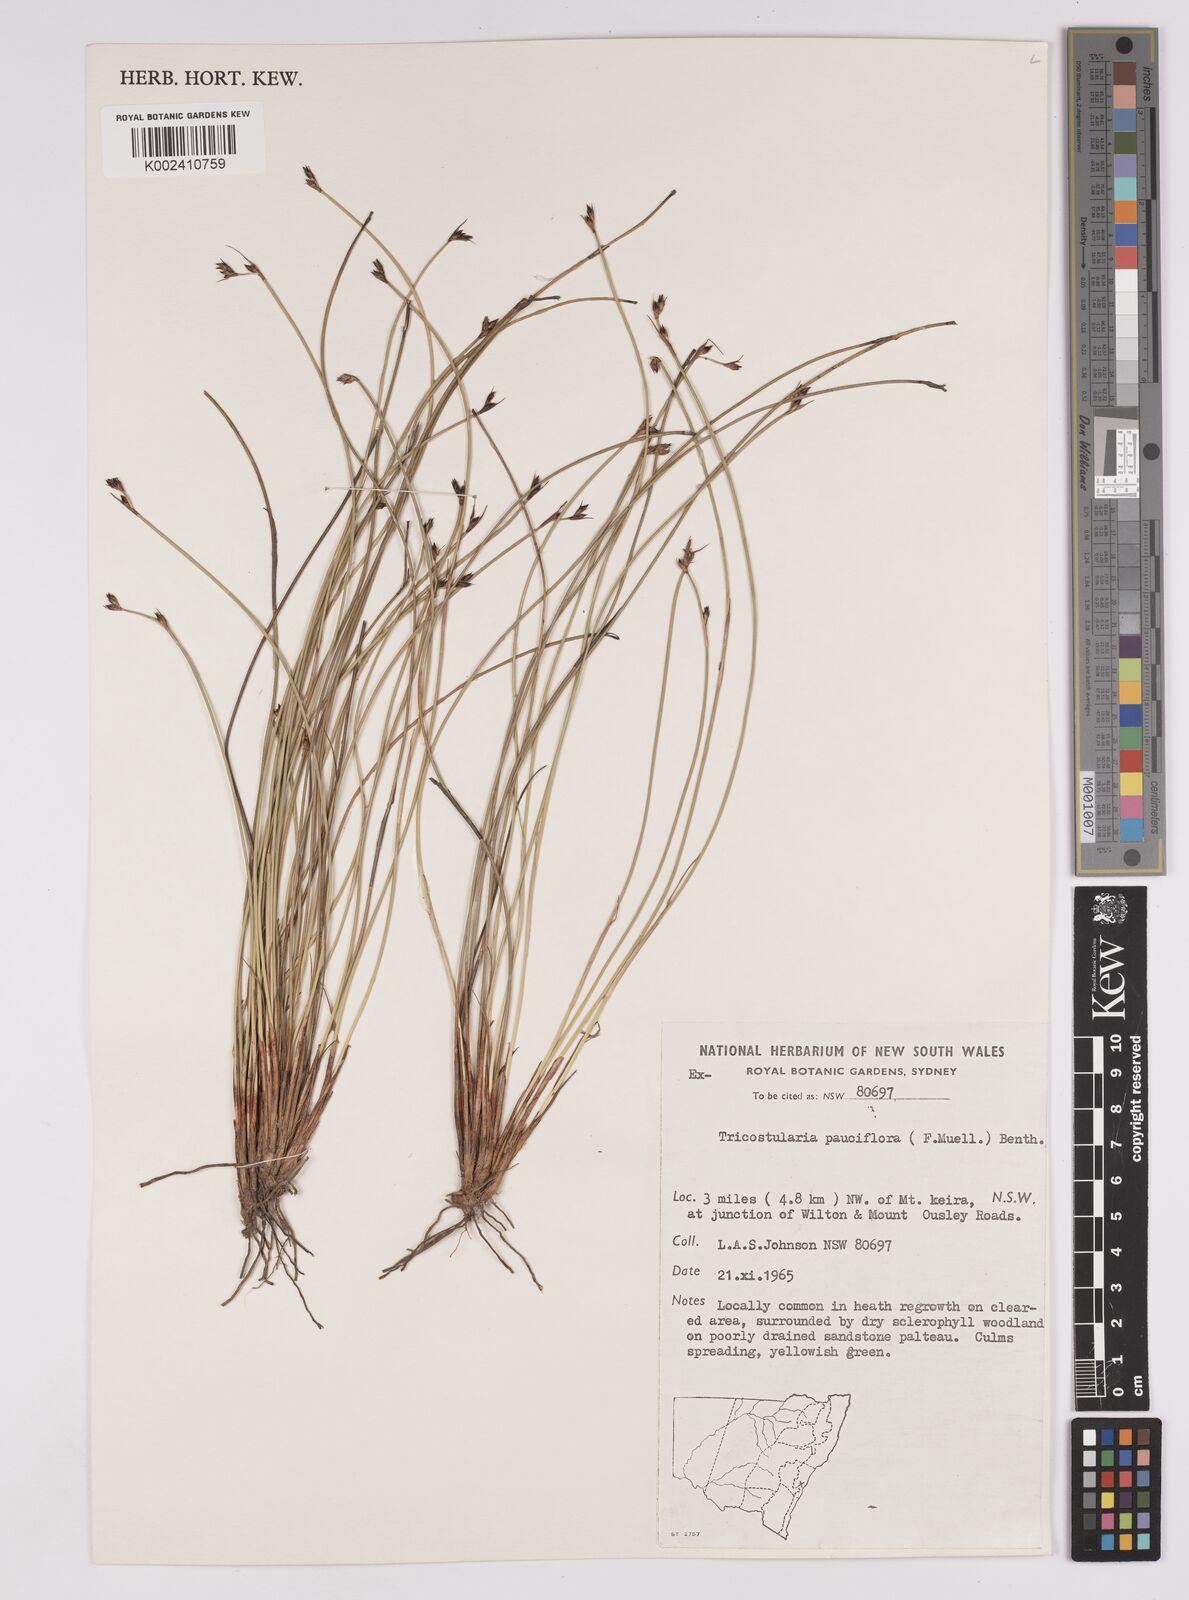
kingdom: Plantae
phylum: Tracheophyta
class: Liliopsida
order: Poales
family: Cyperaceae
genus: Tricostularia
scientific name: Tricostularia pauciflora
